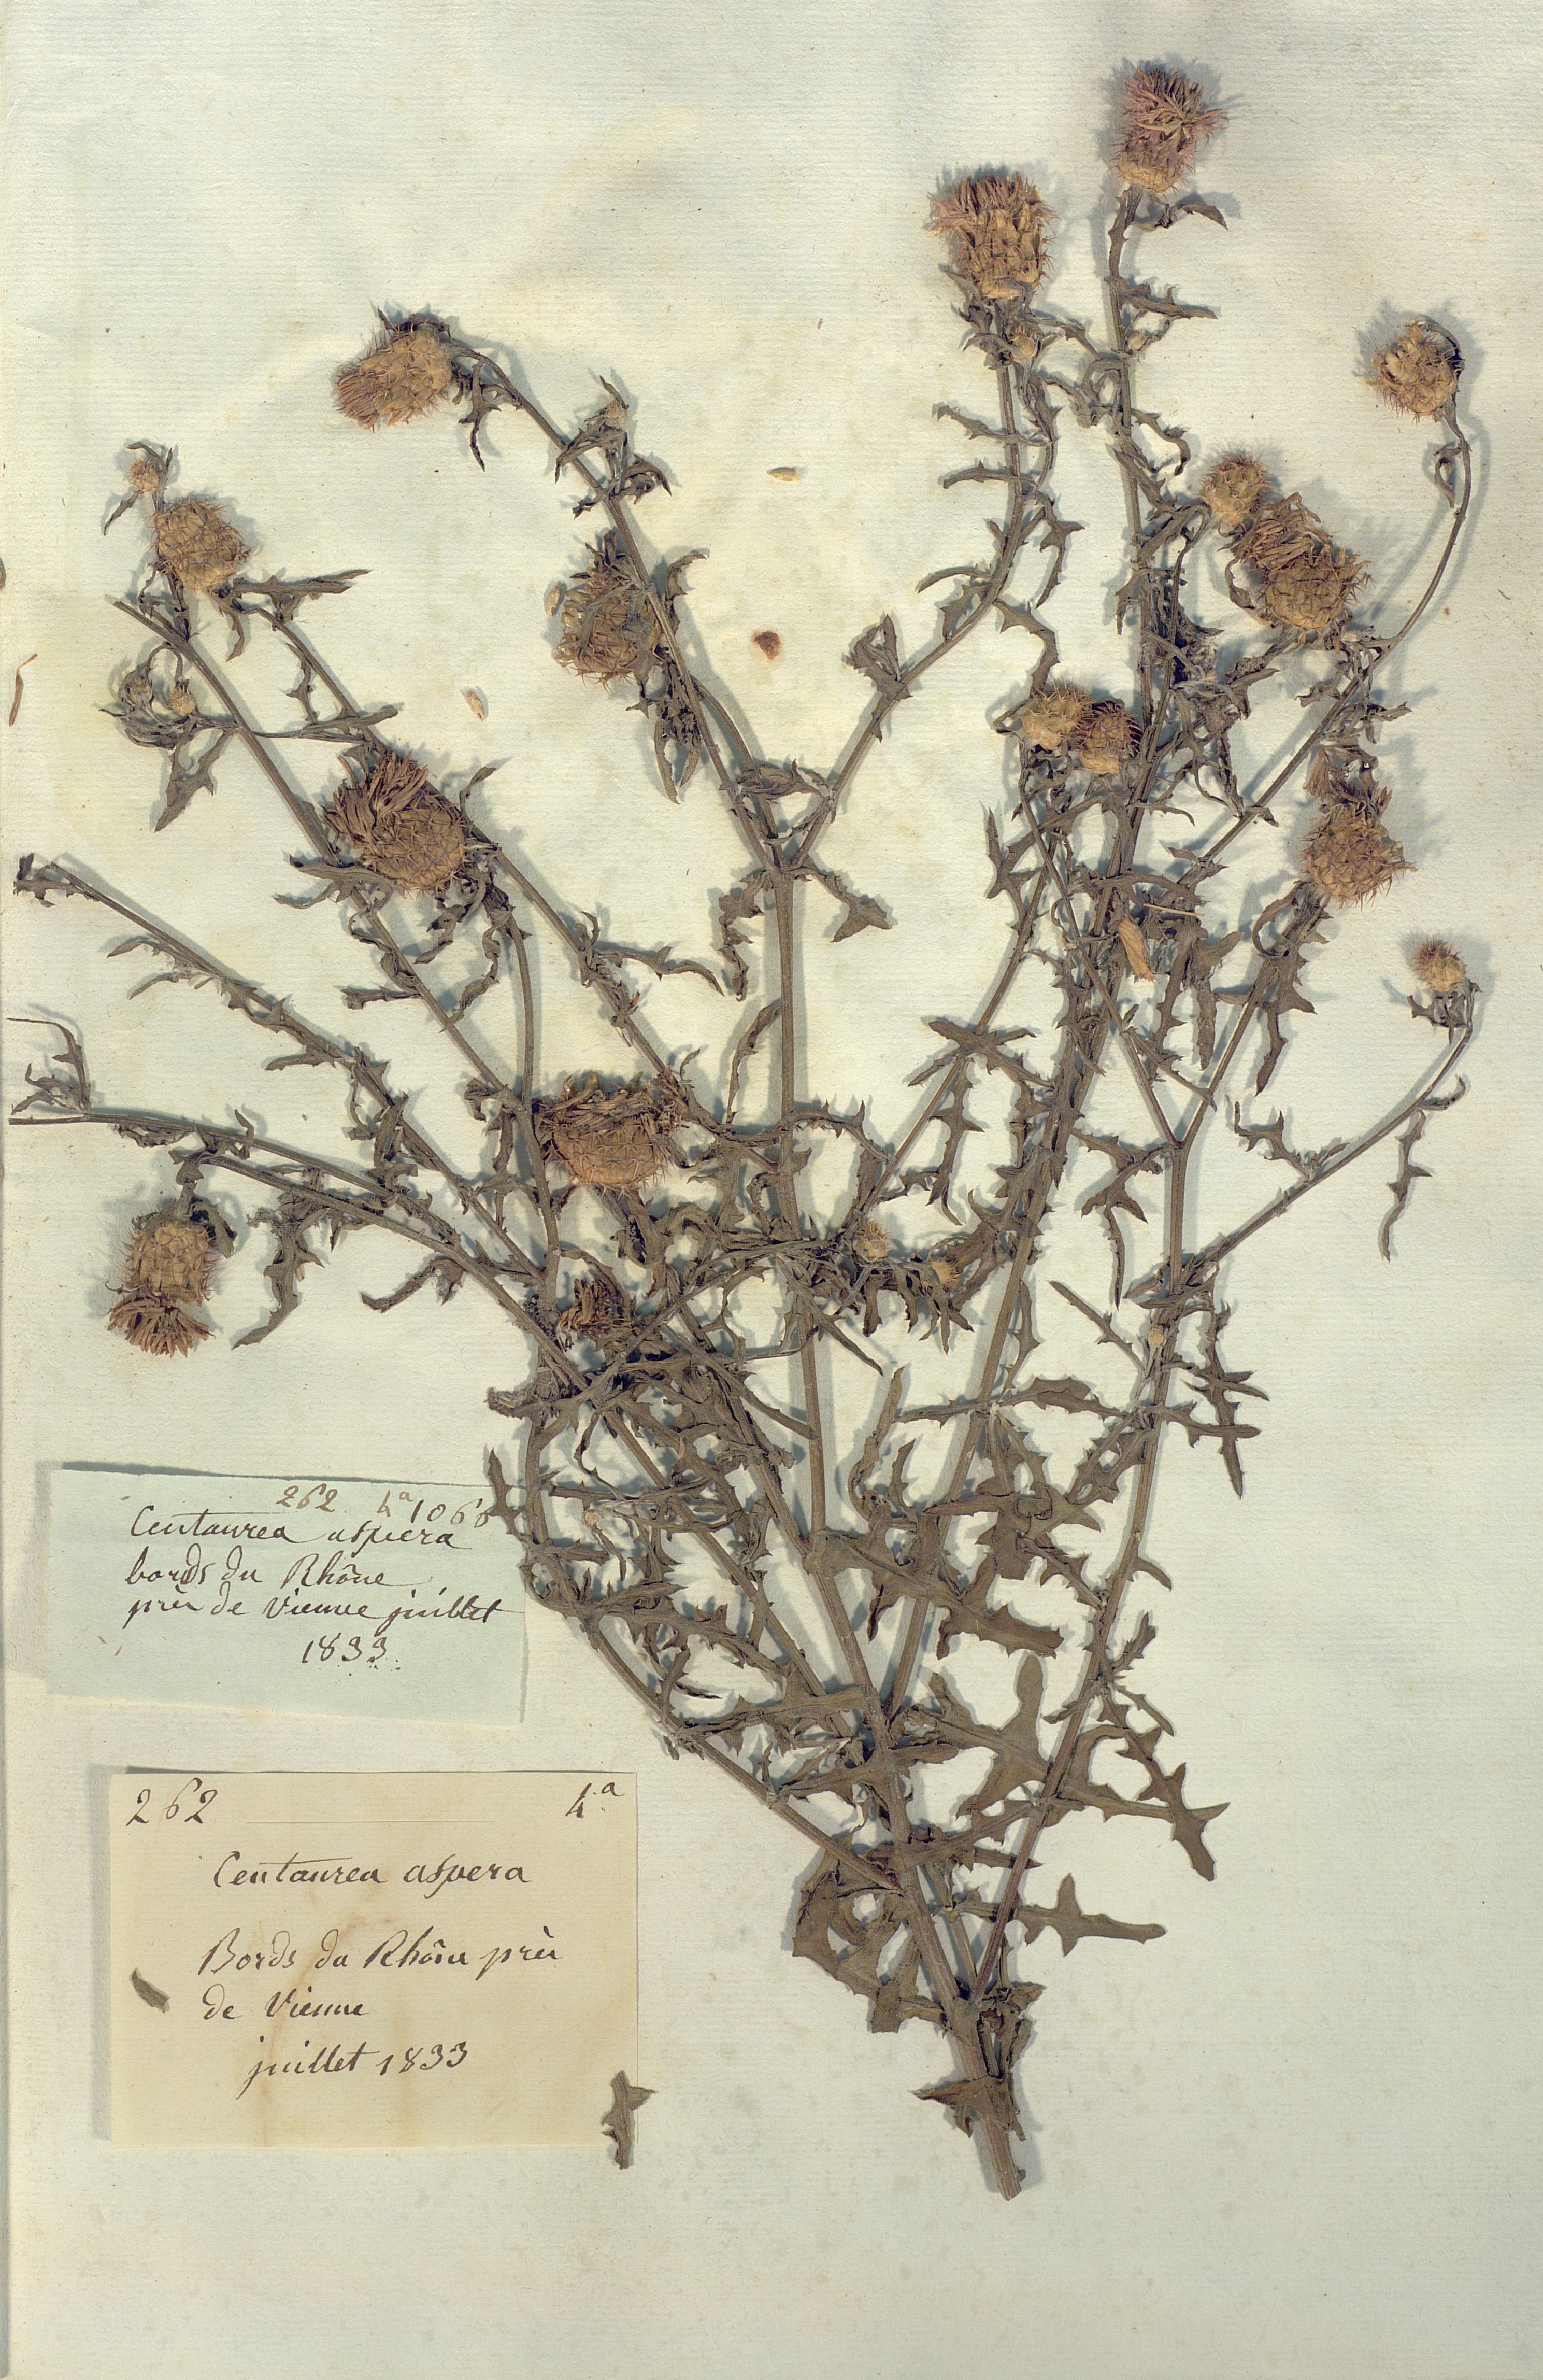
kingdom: Plantae
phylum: Tracheophyta
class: Magnoliopsida
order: Asterales
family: Asteraceae
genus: Centaurea
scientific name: Centaurea aspera
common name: Rough star-thistle
